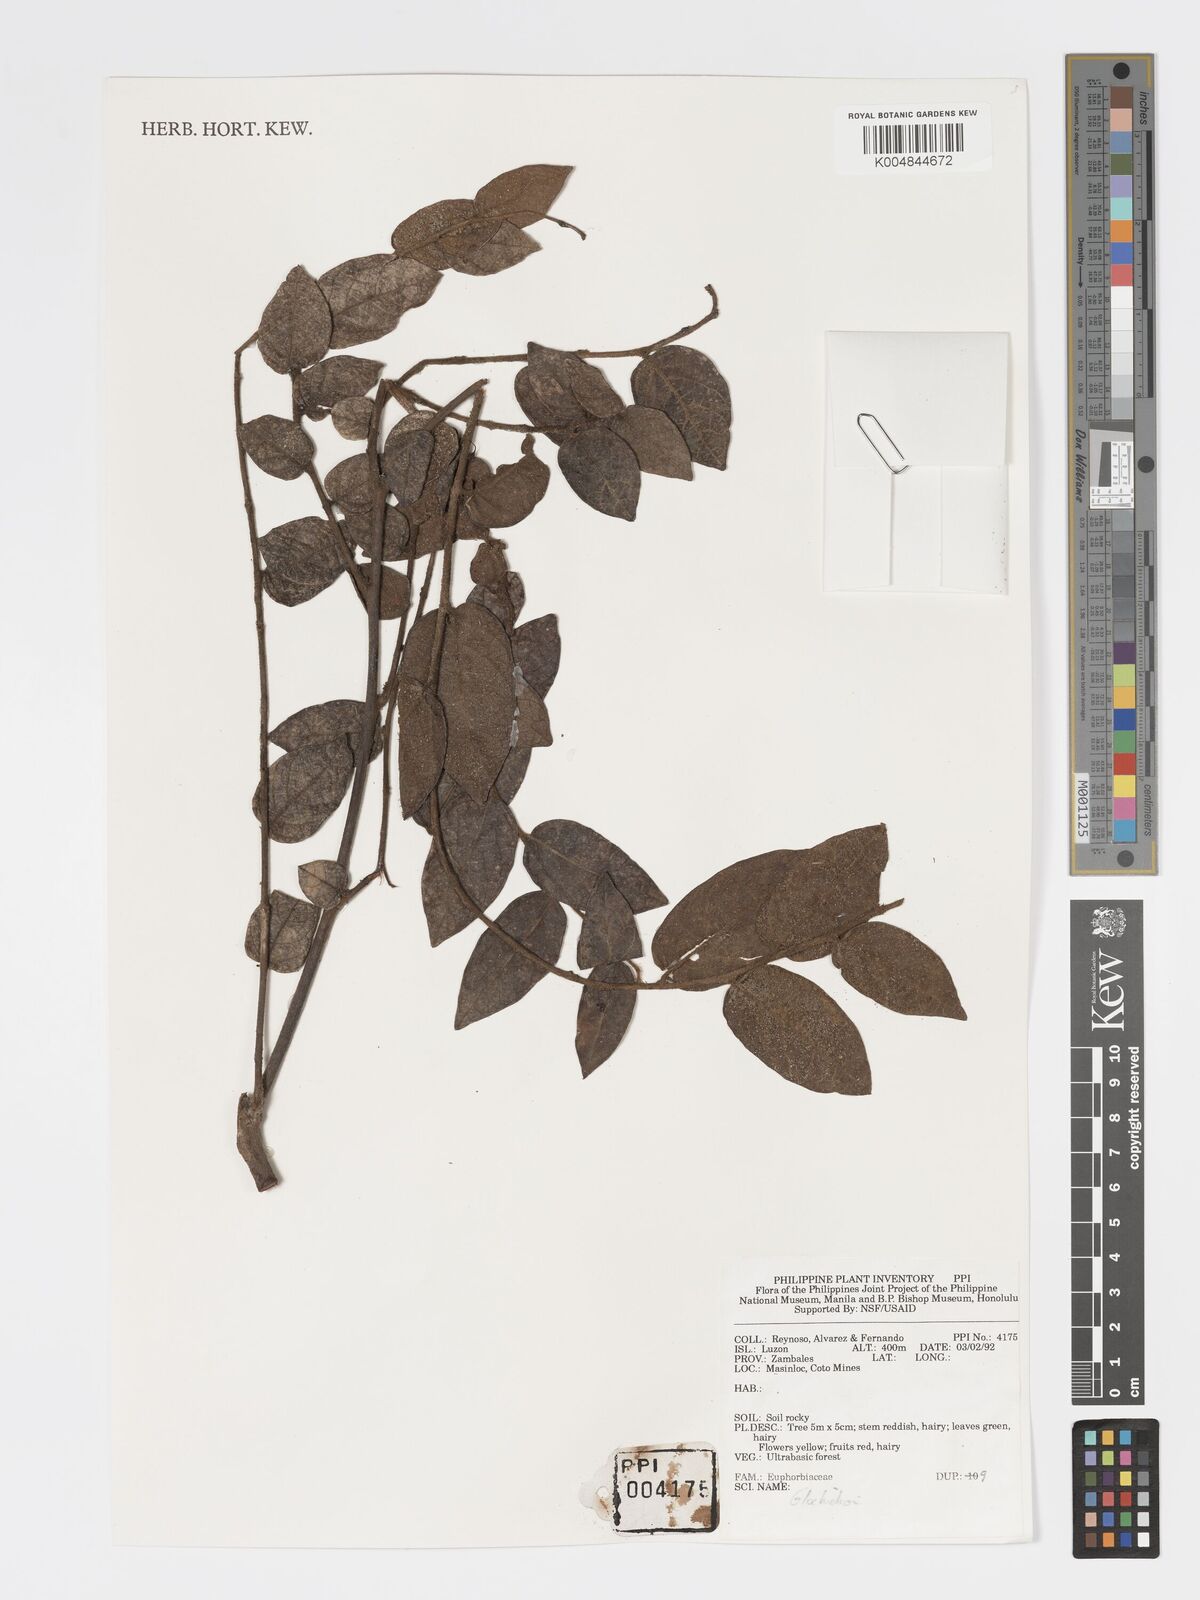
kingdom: Plantae
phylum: Tracheophyta
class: Magnoliopsida
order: Malpighiales
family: Phyllanthaceae
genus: Glochidion
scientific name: Glochidion
